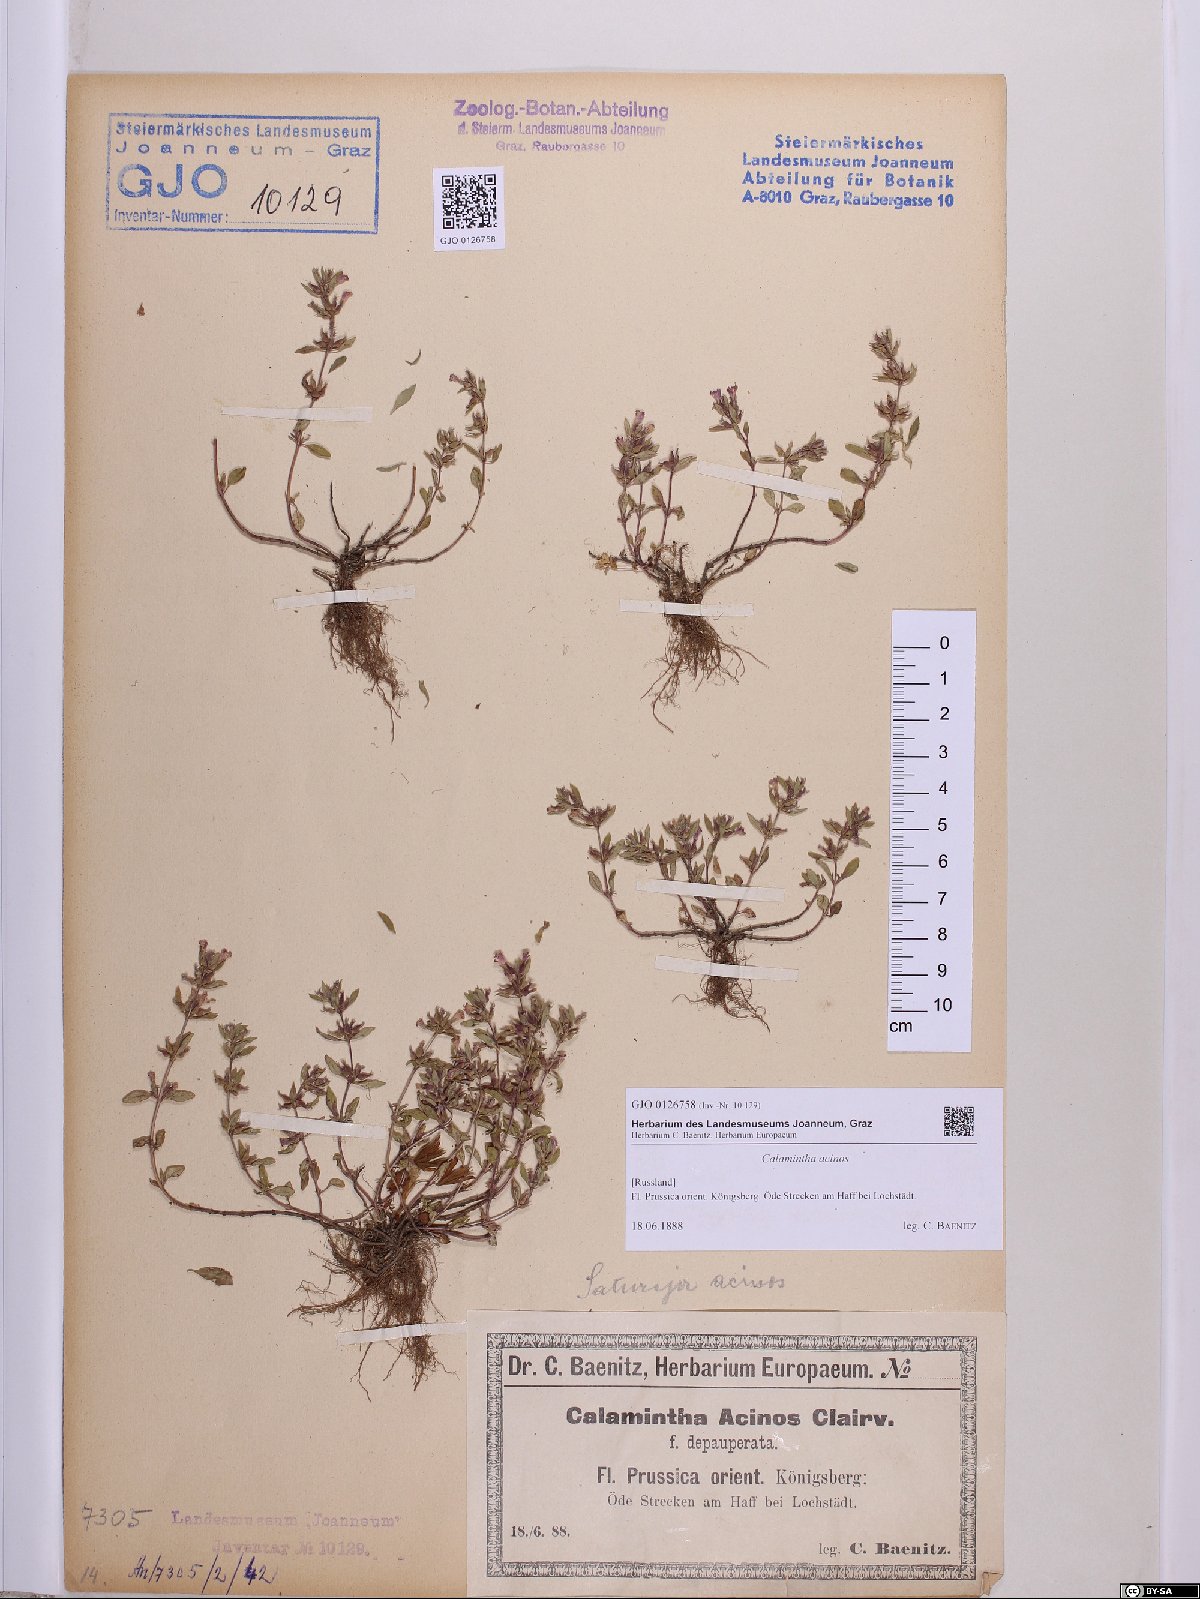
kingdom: Plantae
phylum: Tracheophyta
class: Magnoliopsida
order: Lamiales
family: Lamiaceae
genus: Clinopodium
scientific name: Clinopodium acinos
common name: Basil thyme
